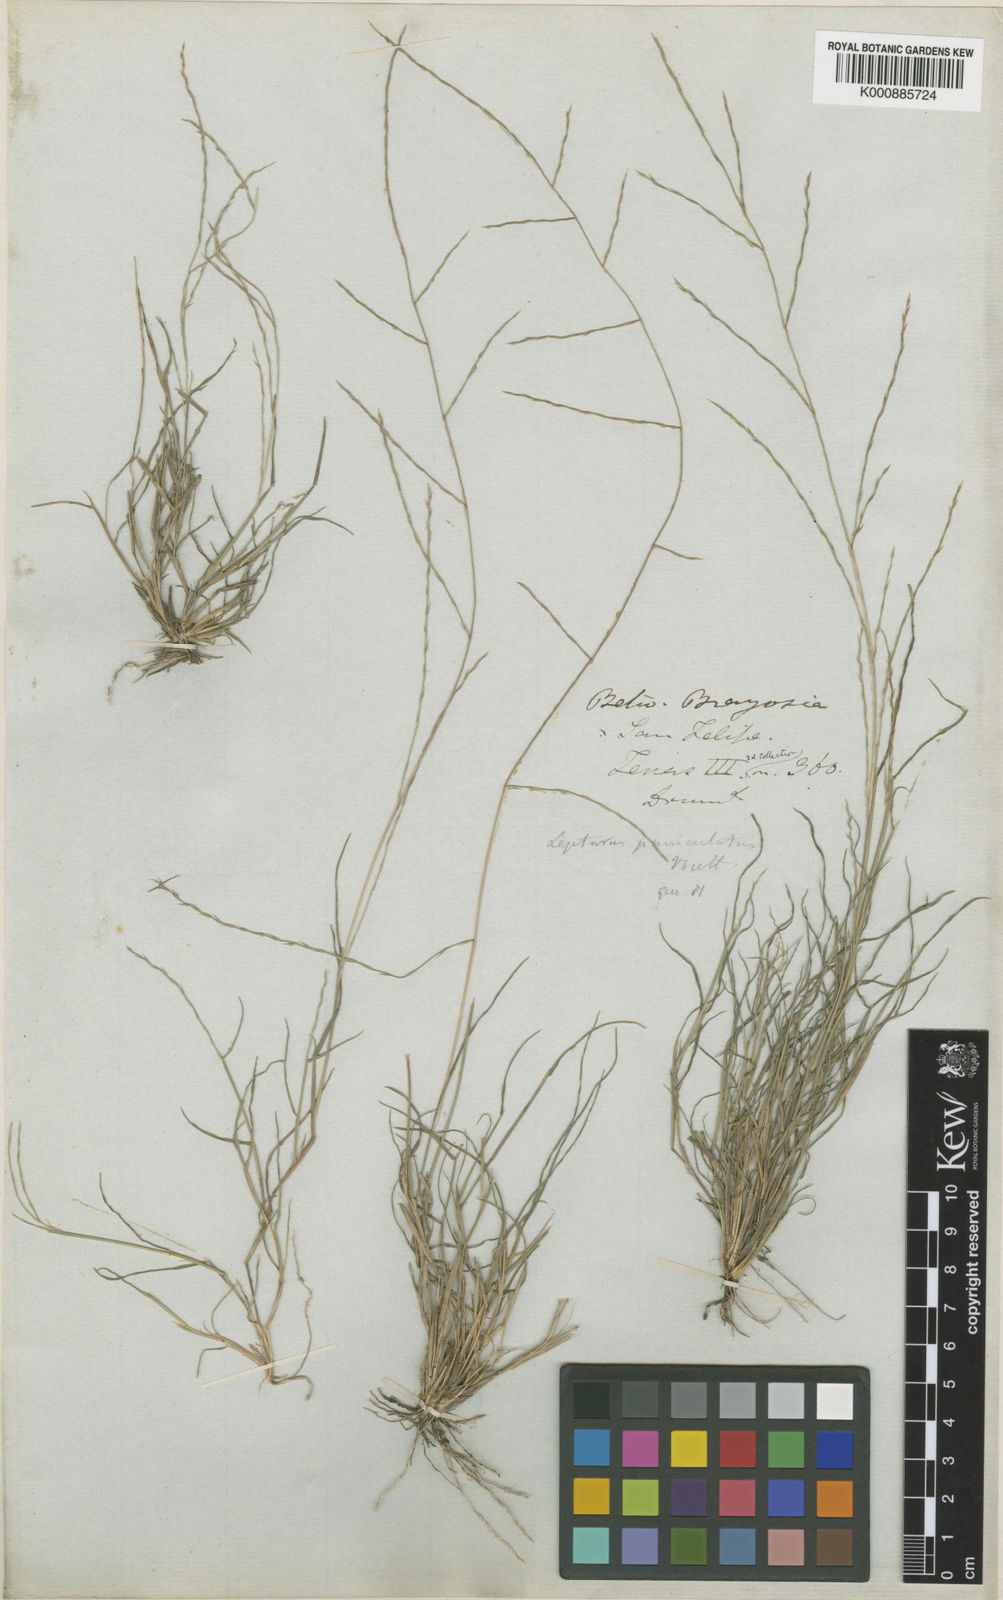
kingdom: Plantae
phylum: Tracheophyta
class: Liliopsida
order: Poales
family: Poaceae
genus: Muhlenbergia
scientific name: Muhlenbergia
